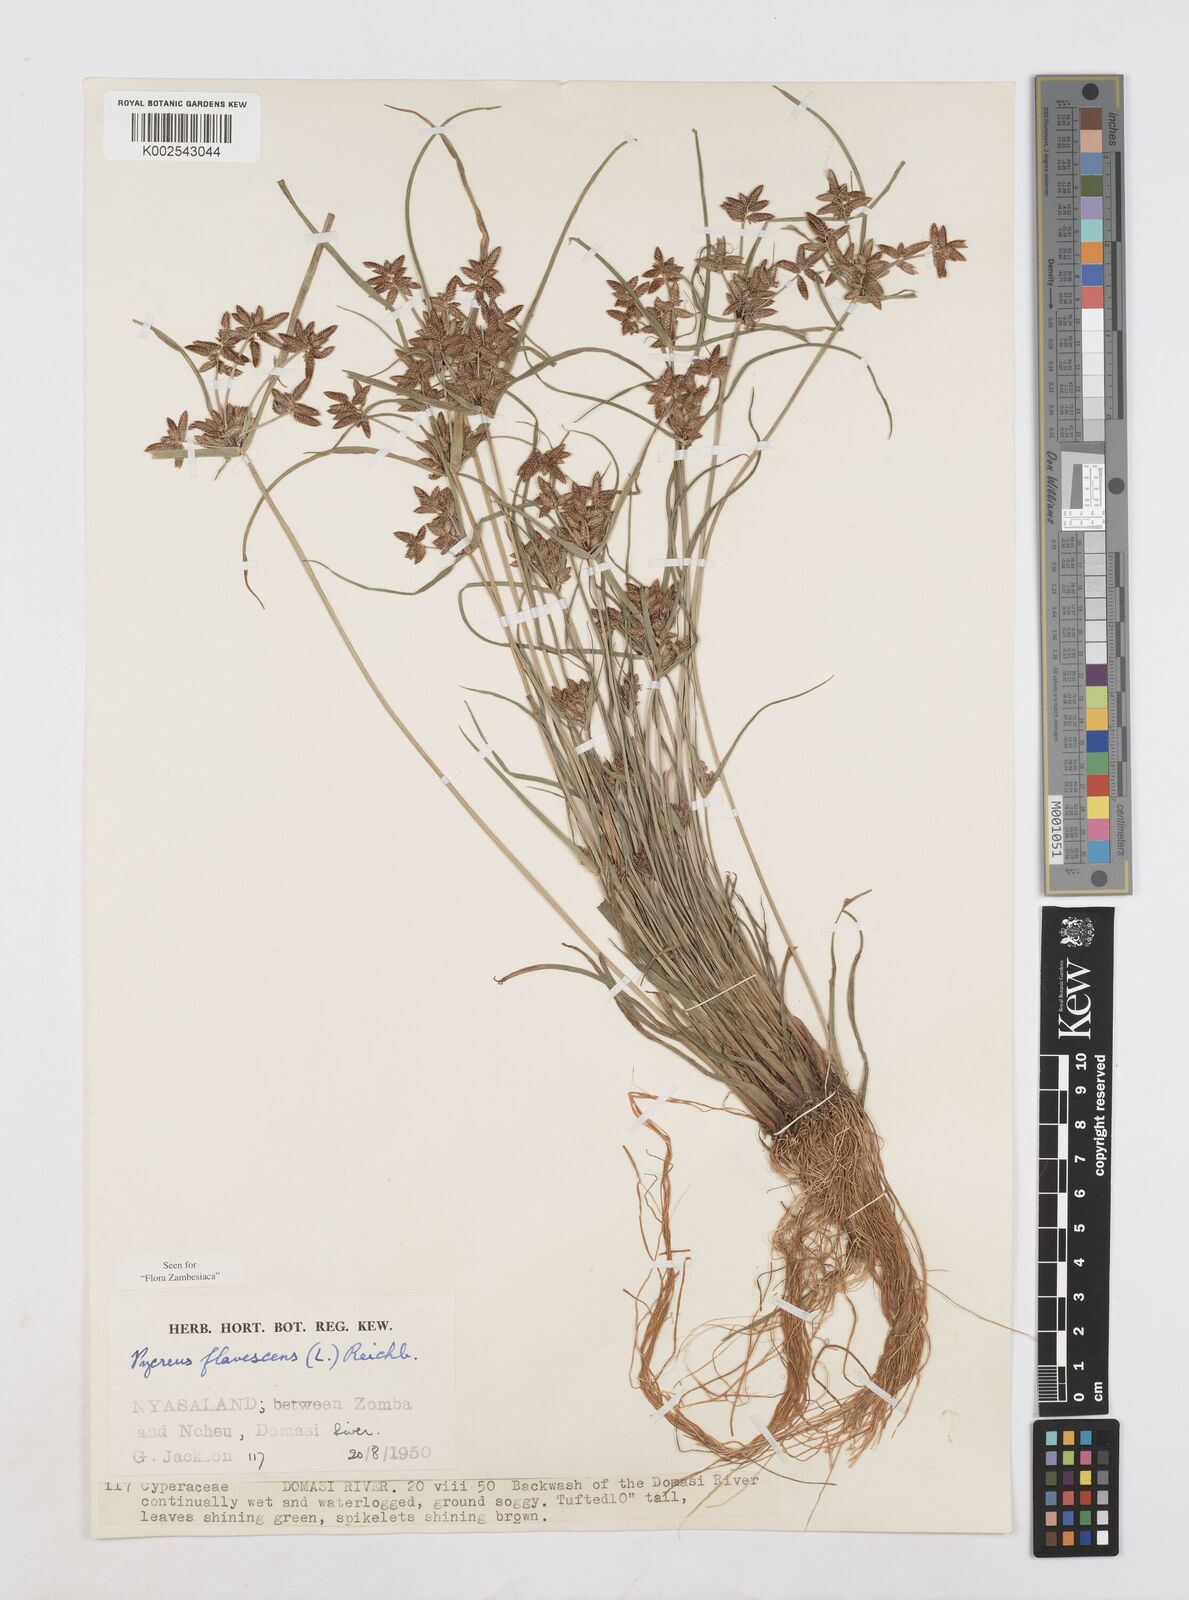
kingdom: Plantae
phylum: Tracheophyta
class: Liliopsida
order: Poales
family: Cyperaceae
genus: Cyperus
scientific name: Cyperus flavescens
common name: Yellow galingale
